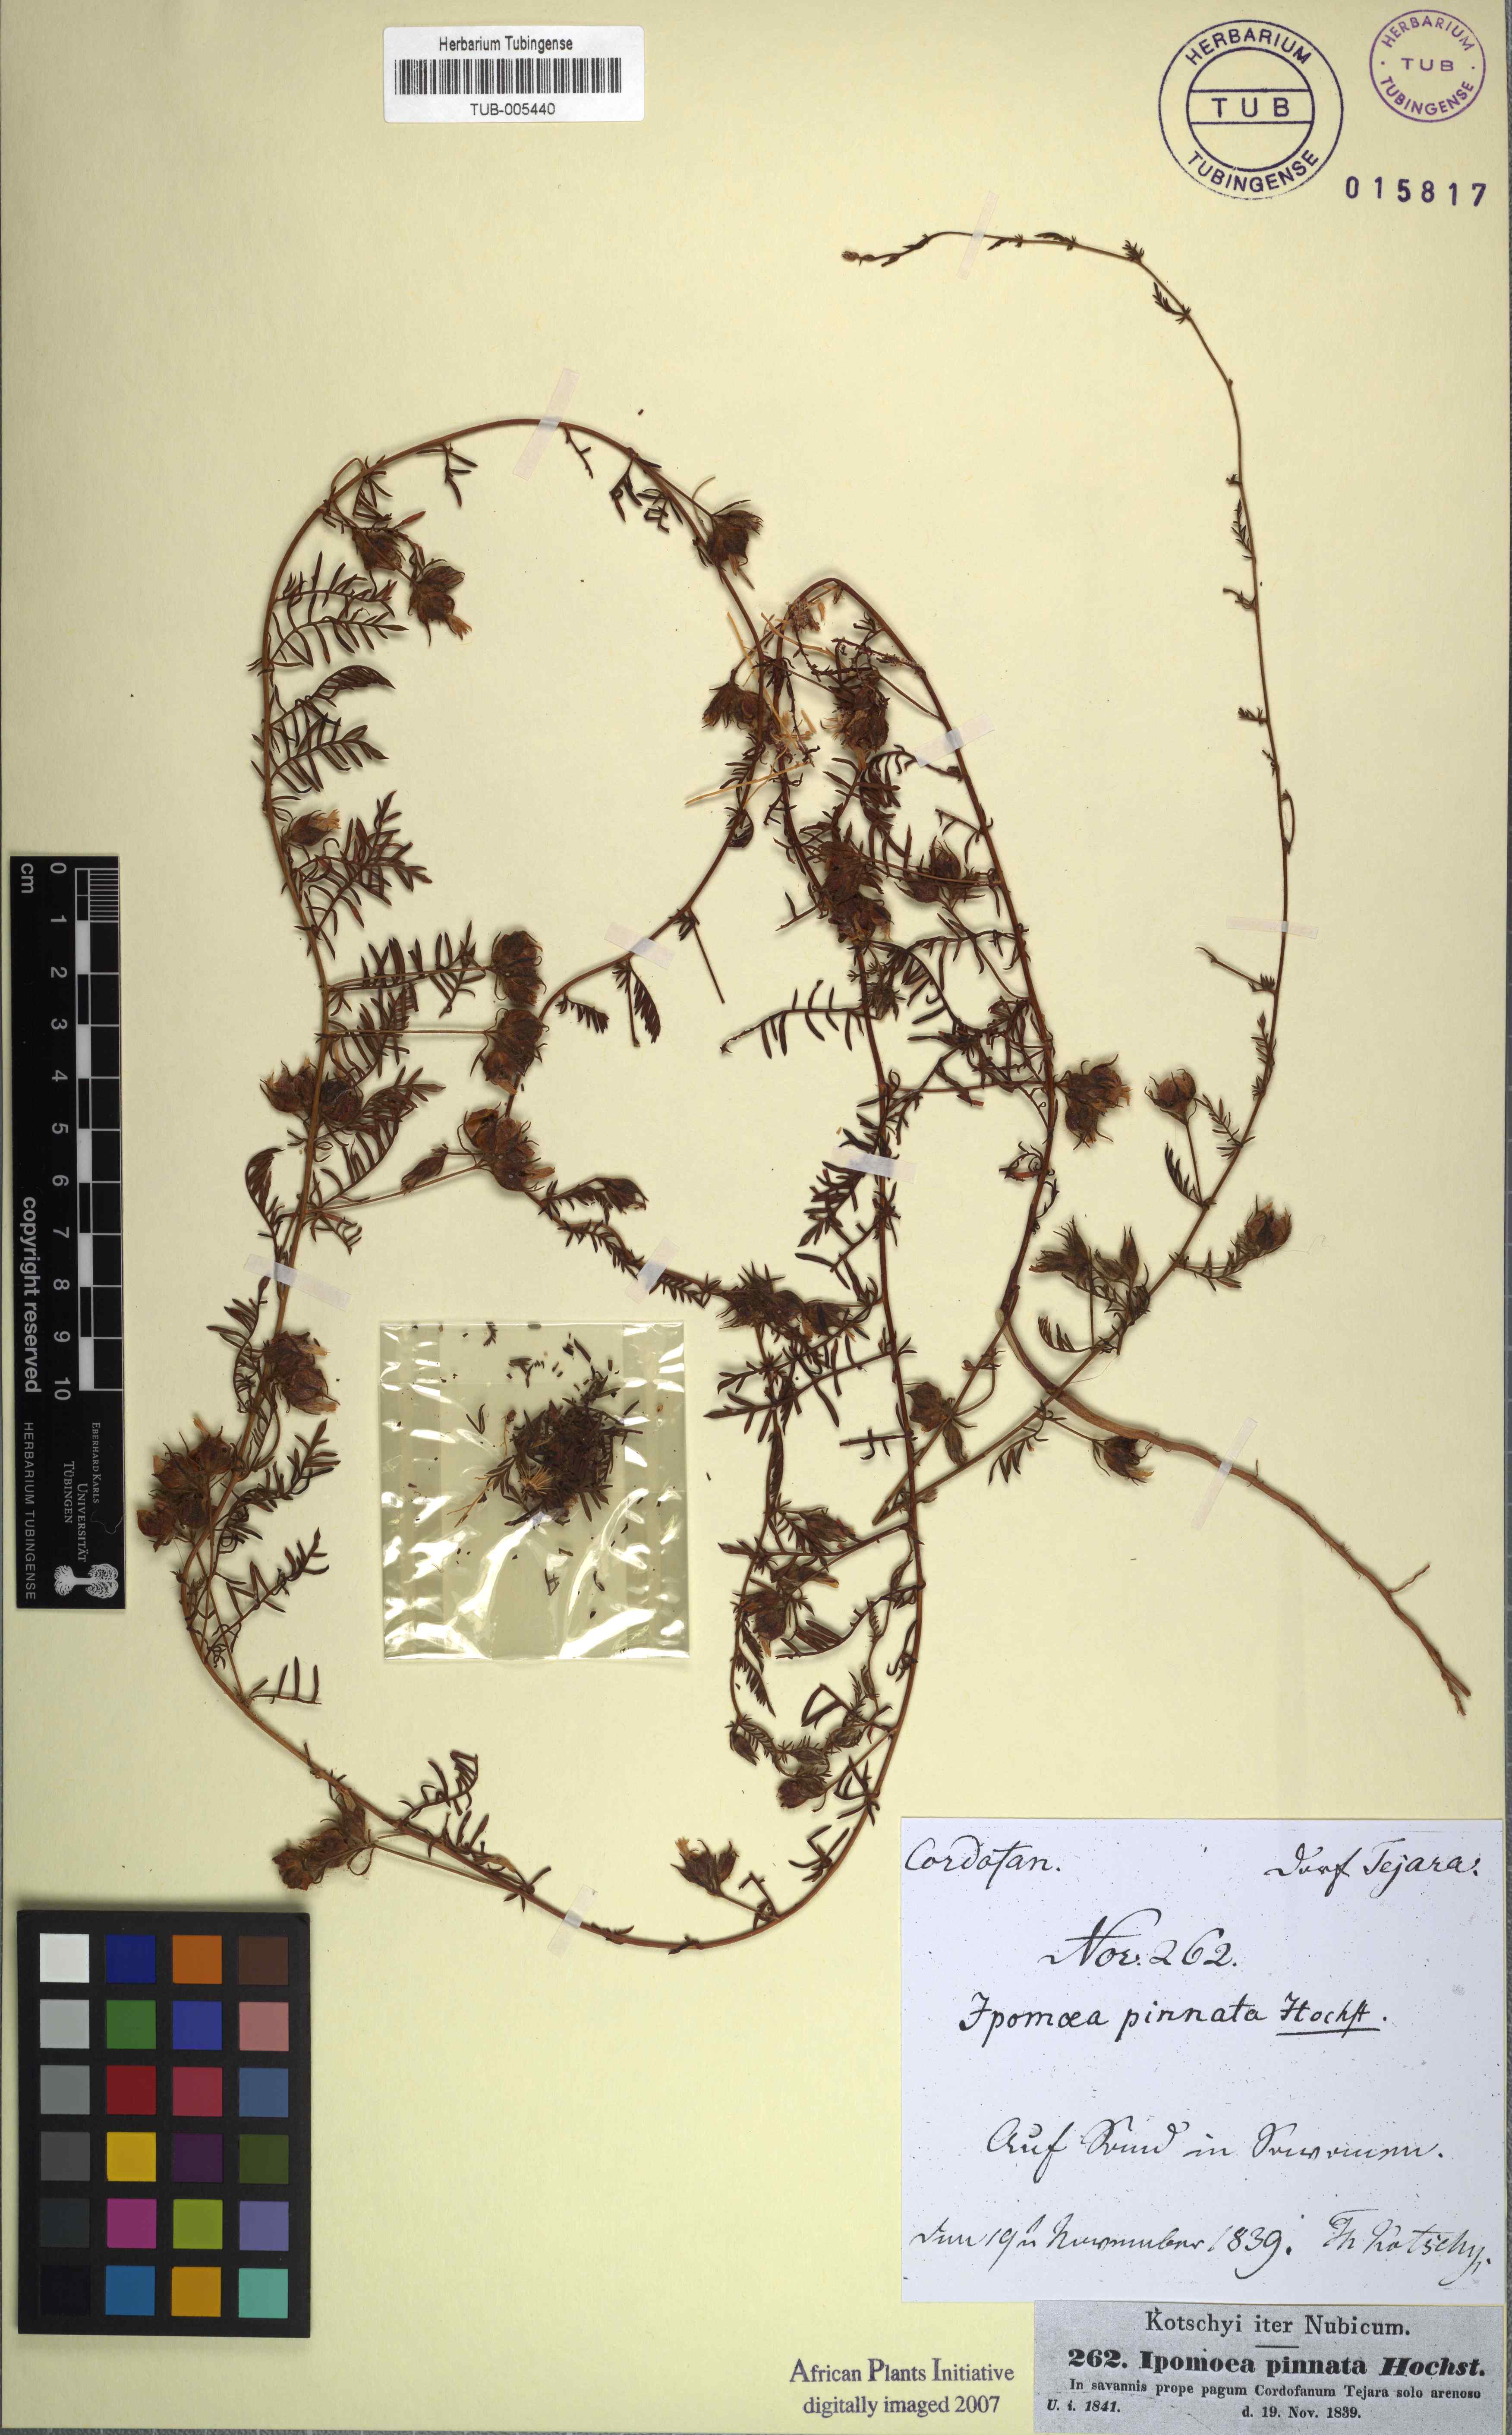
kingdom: Plantae
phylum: Tracheophyta
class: Magnoliopsida
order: Solanales
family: Convolvulaceae
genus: Xenostegia
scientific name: Xenostegia pinnata
